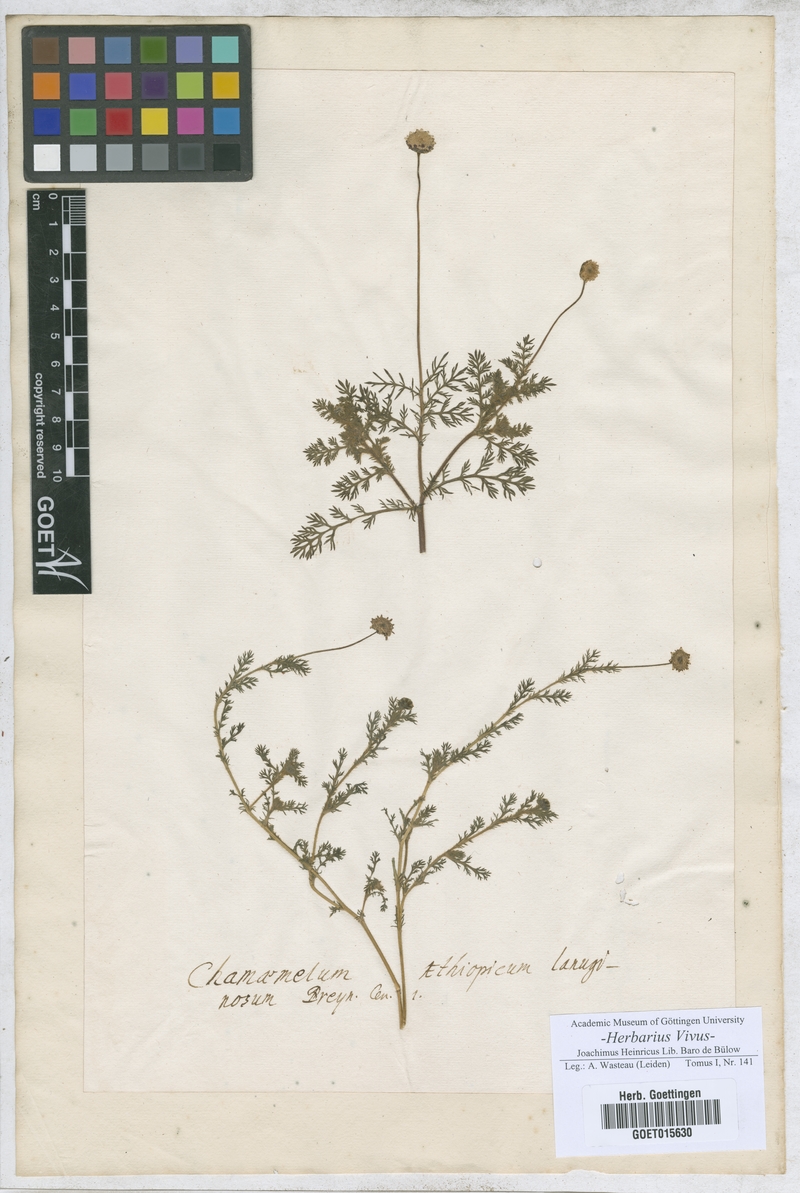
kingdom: Plantae
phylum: Tracheophyta
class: Magnoliopsida
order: Asterales
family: Asteraceae
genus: Chamaemelum
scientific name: Chamaemelum
